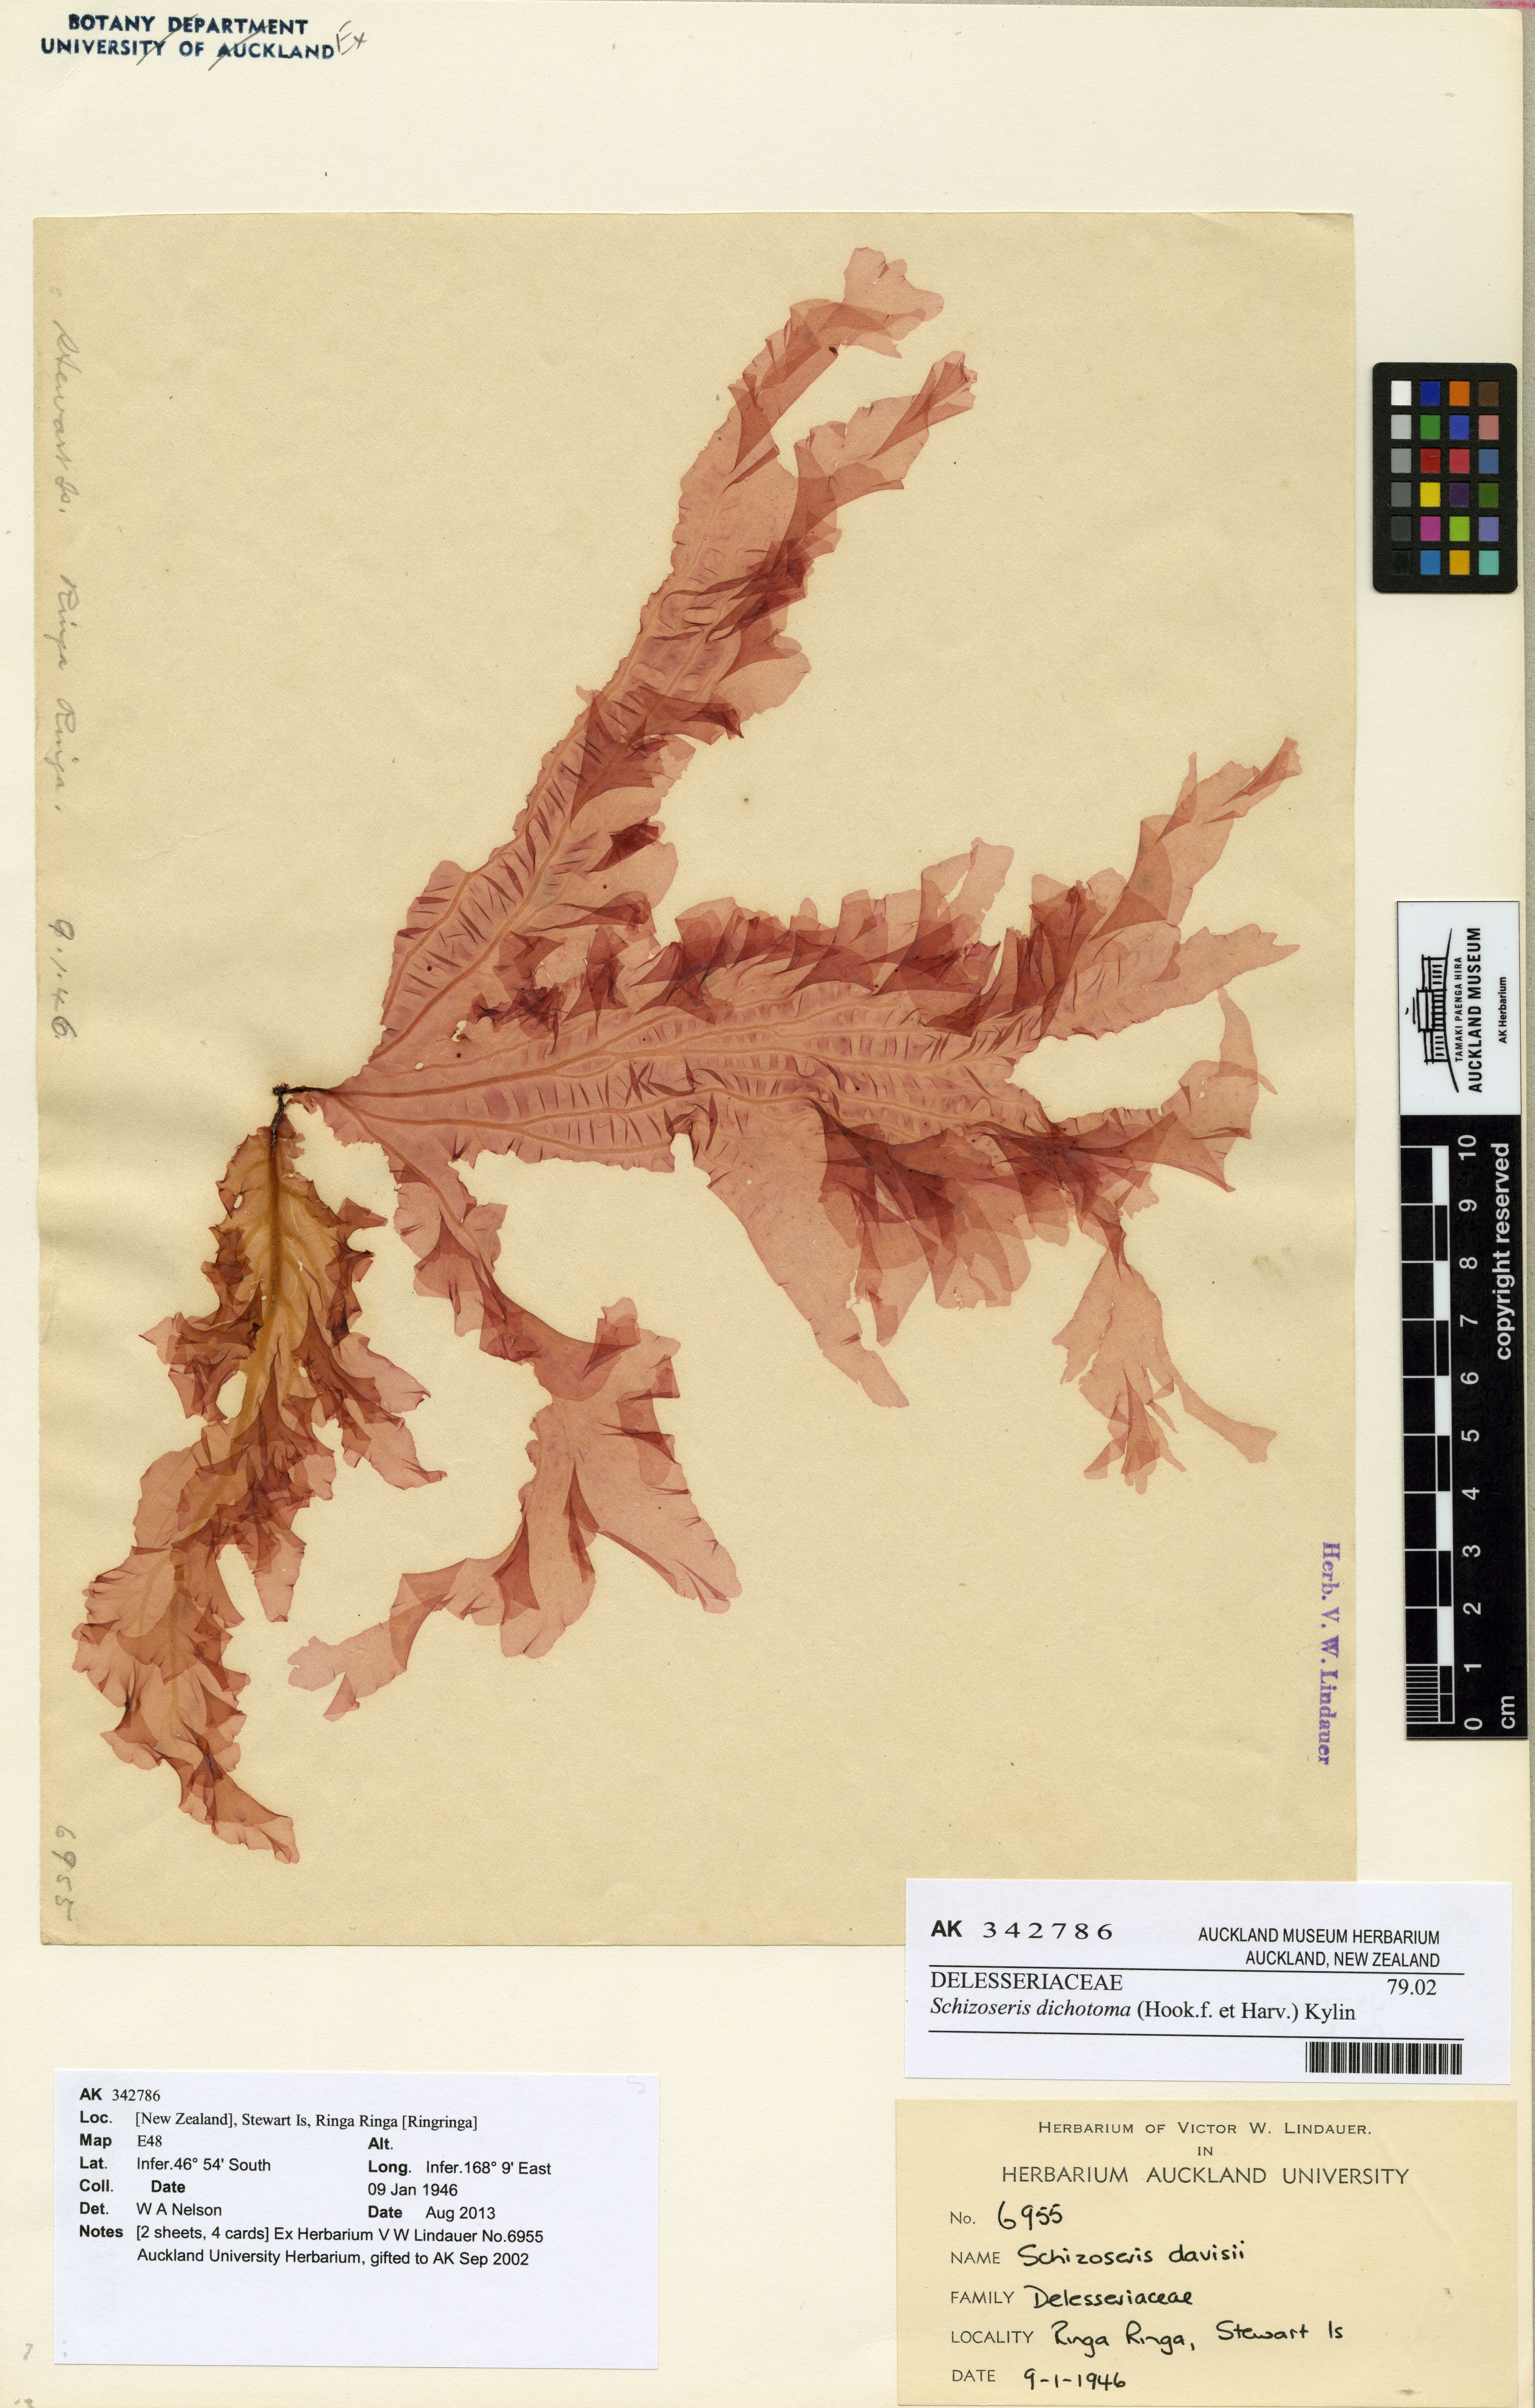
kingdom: Plantae
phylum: Rhodophyta
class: Florideophyceae
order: Ceramiales
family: Delesseriaceae
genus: Schizoseris
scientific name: Schizoseris dichotoma
